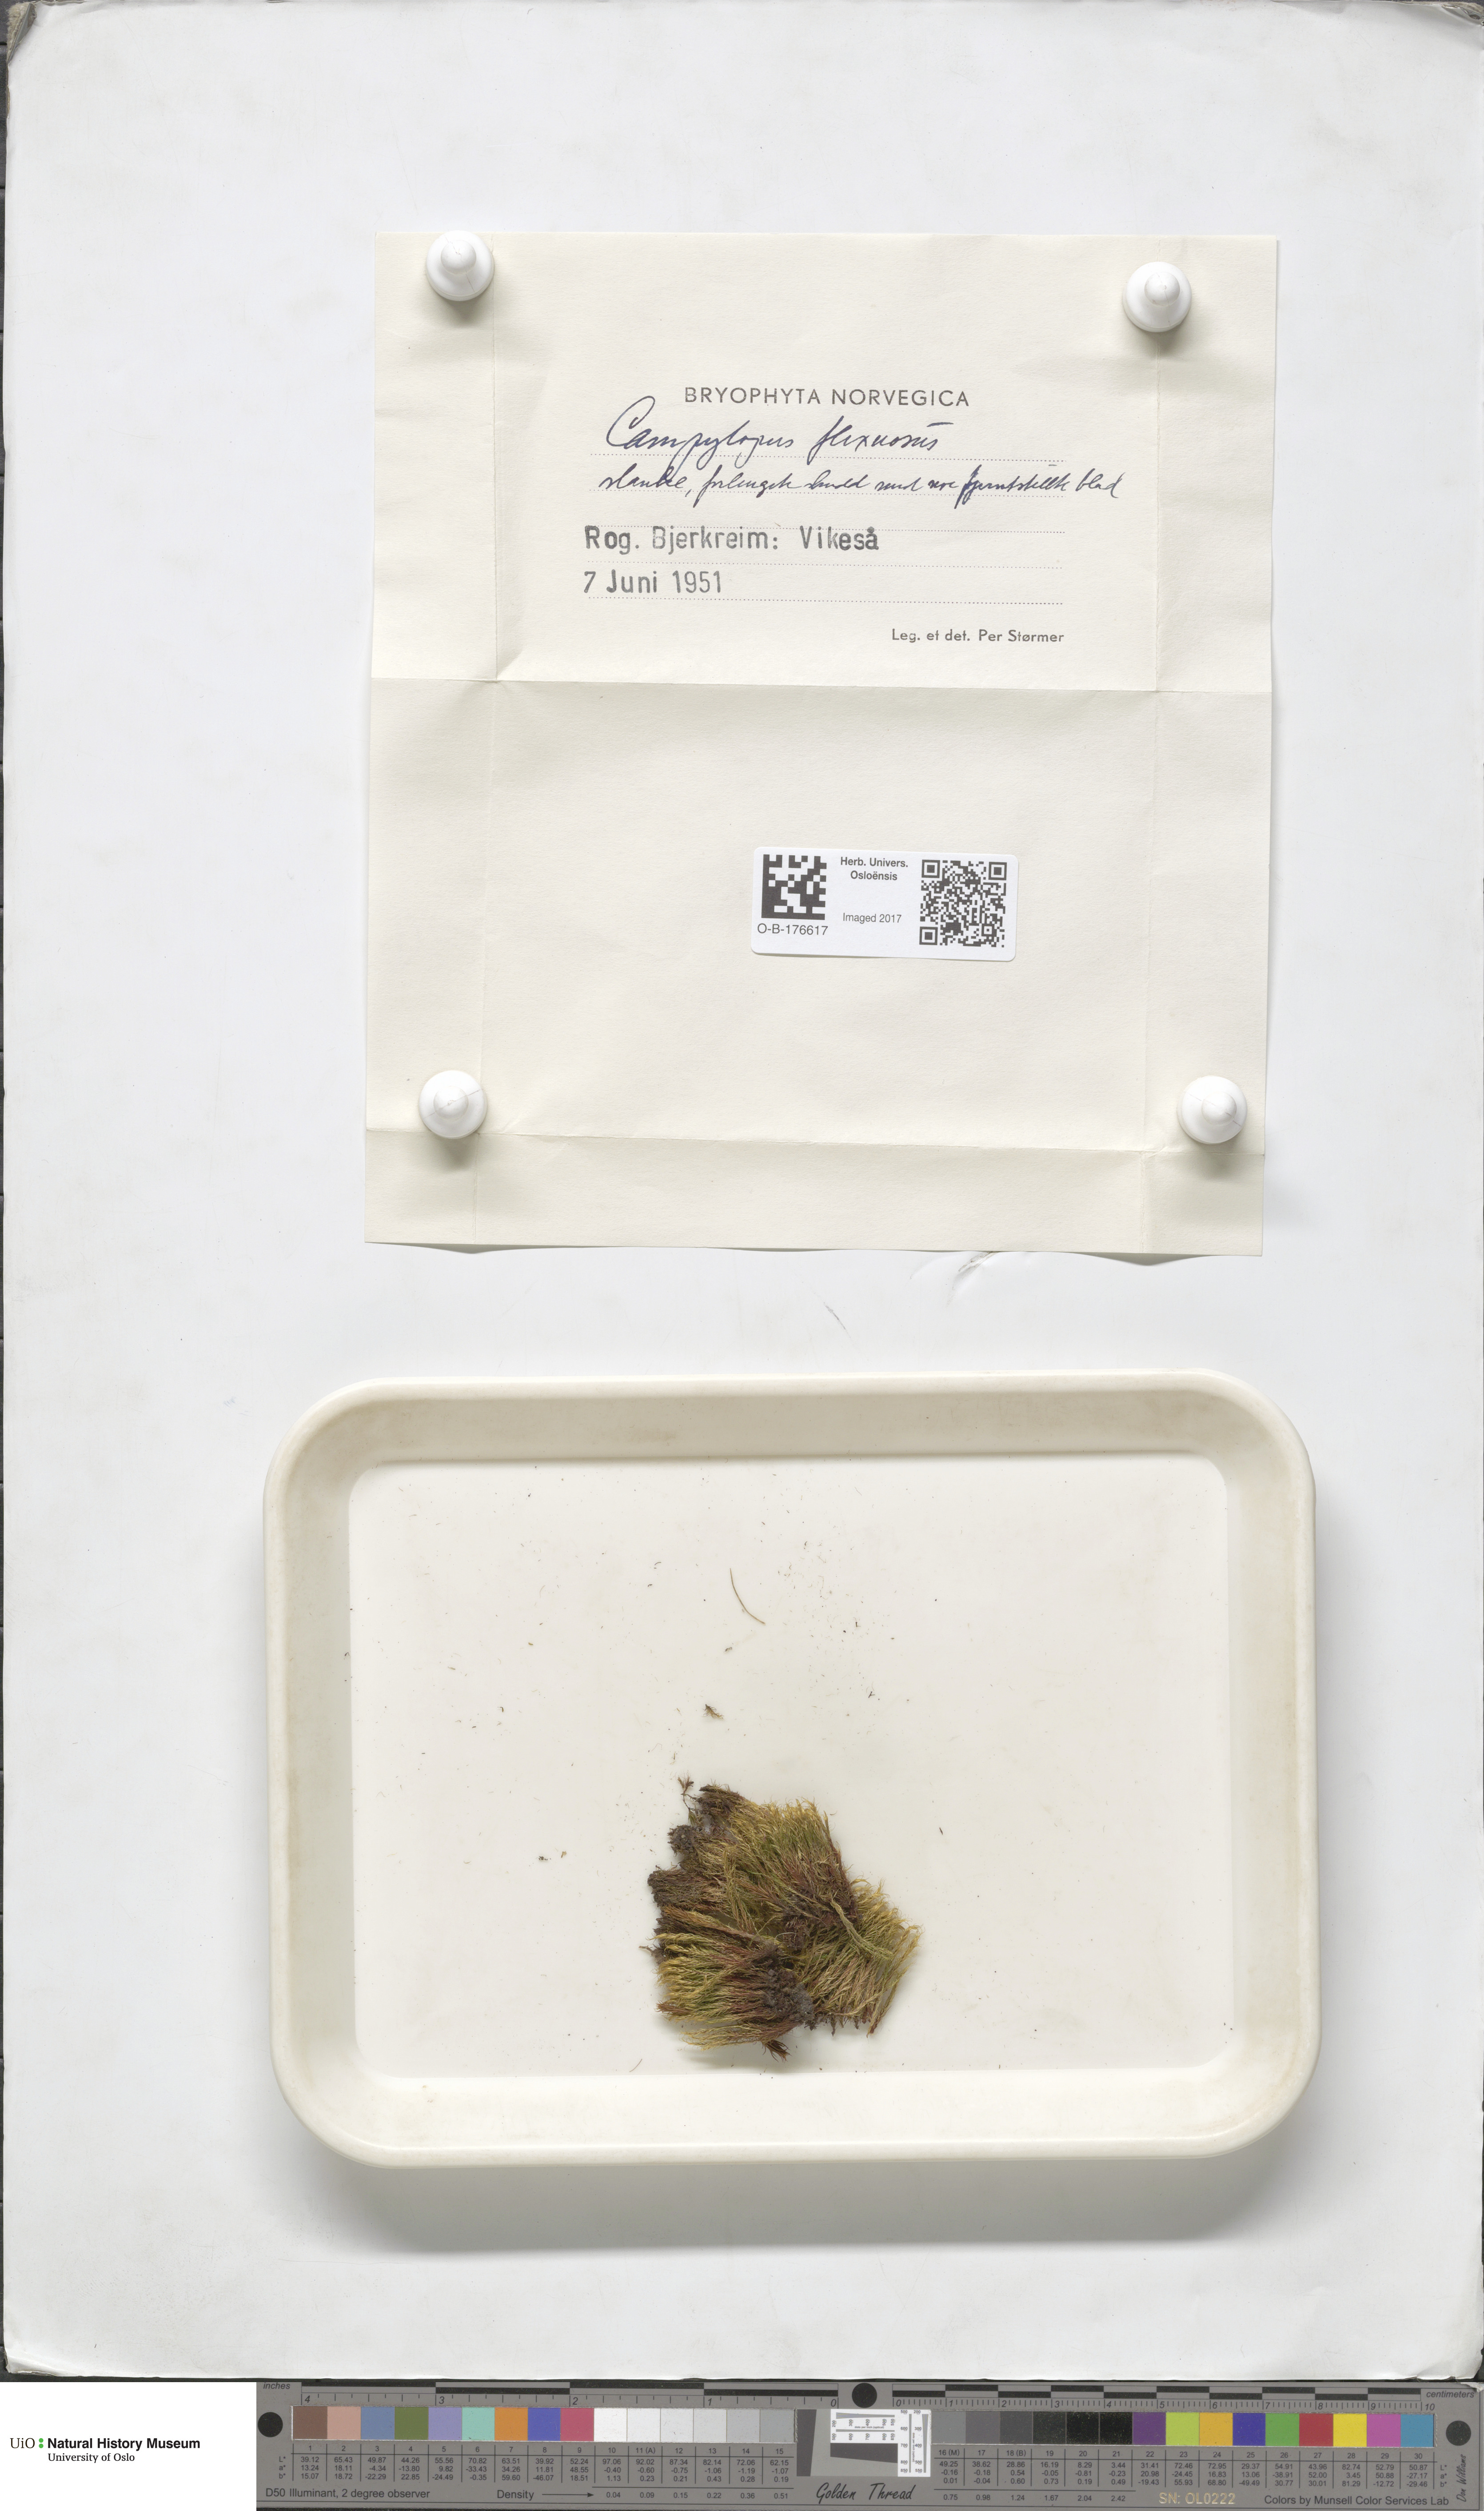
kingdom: Plantae
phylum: Bryophyta
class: Bryopsida
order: Dicranales
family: Leucobryaceae
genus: Campylopus
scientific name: Campylopus flexuosus
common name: Rusty swan-neck moss
